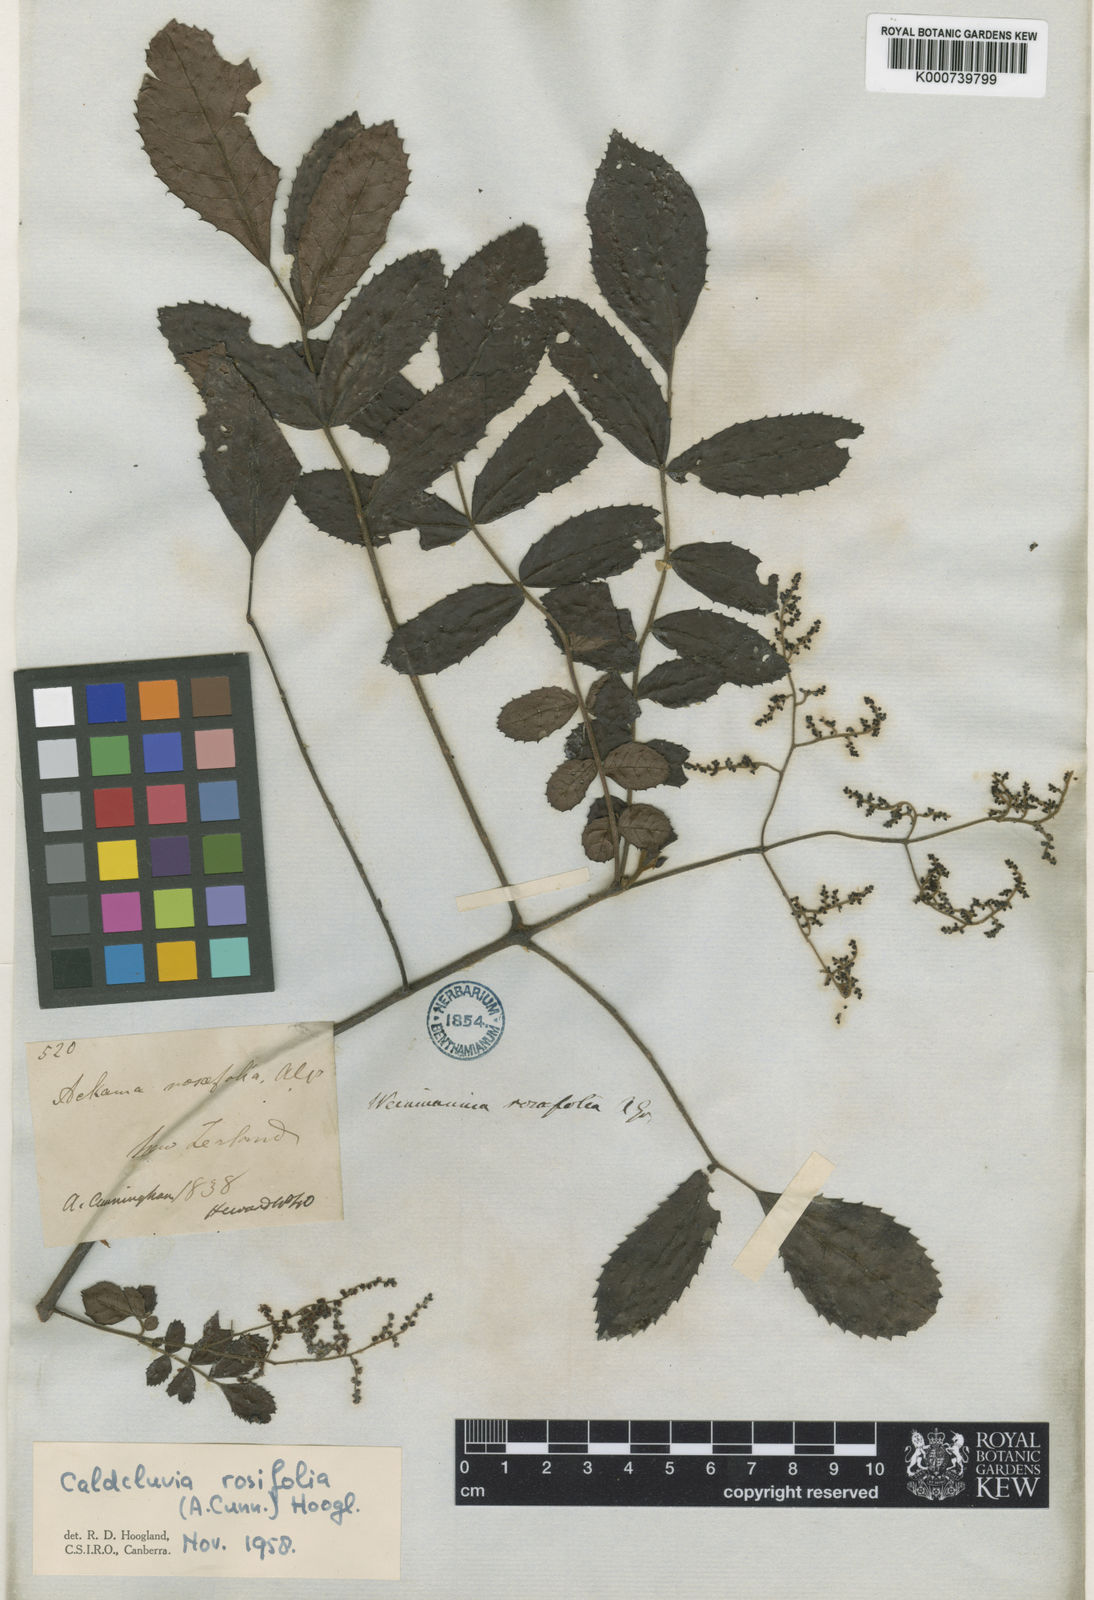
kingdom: Plantae
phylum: Tracheophyta
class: Magnoliopsida
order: Oxalidales
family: Cunoniaceae
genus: Ackama
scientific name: Ackama rosifolia
